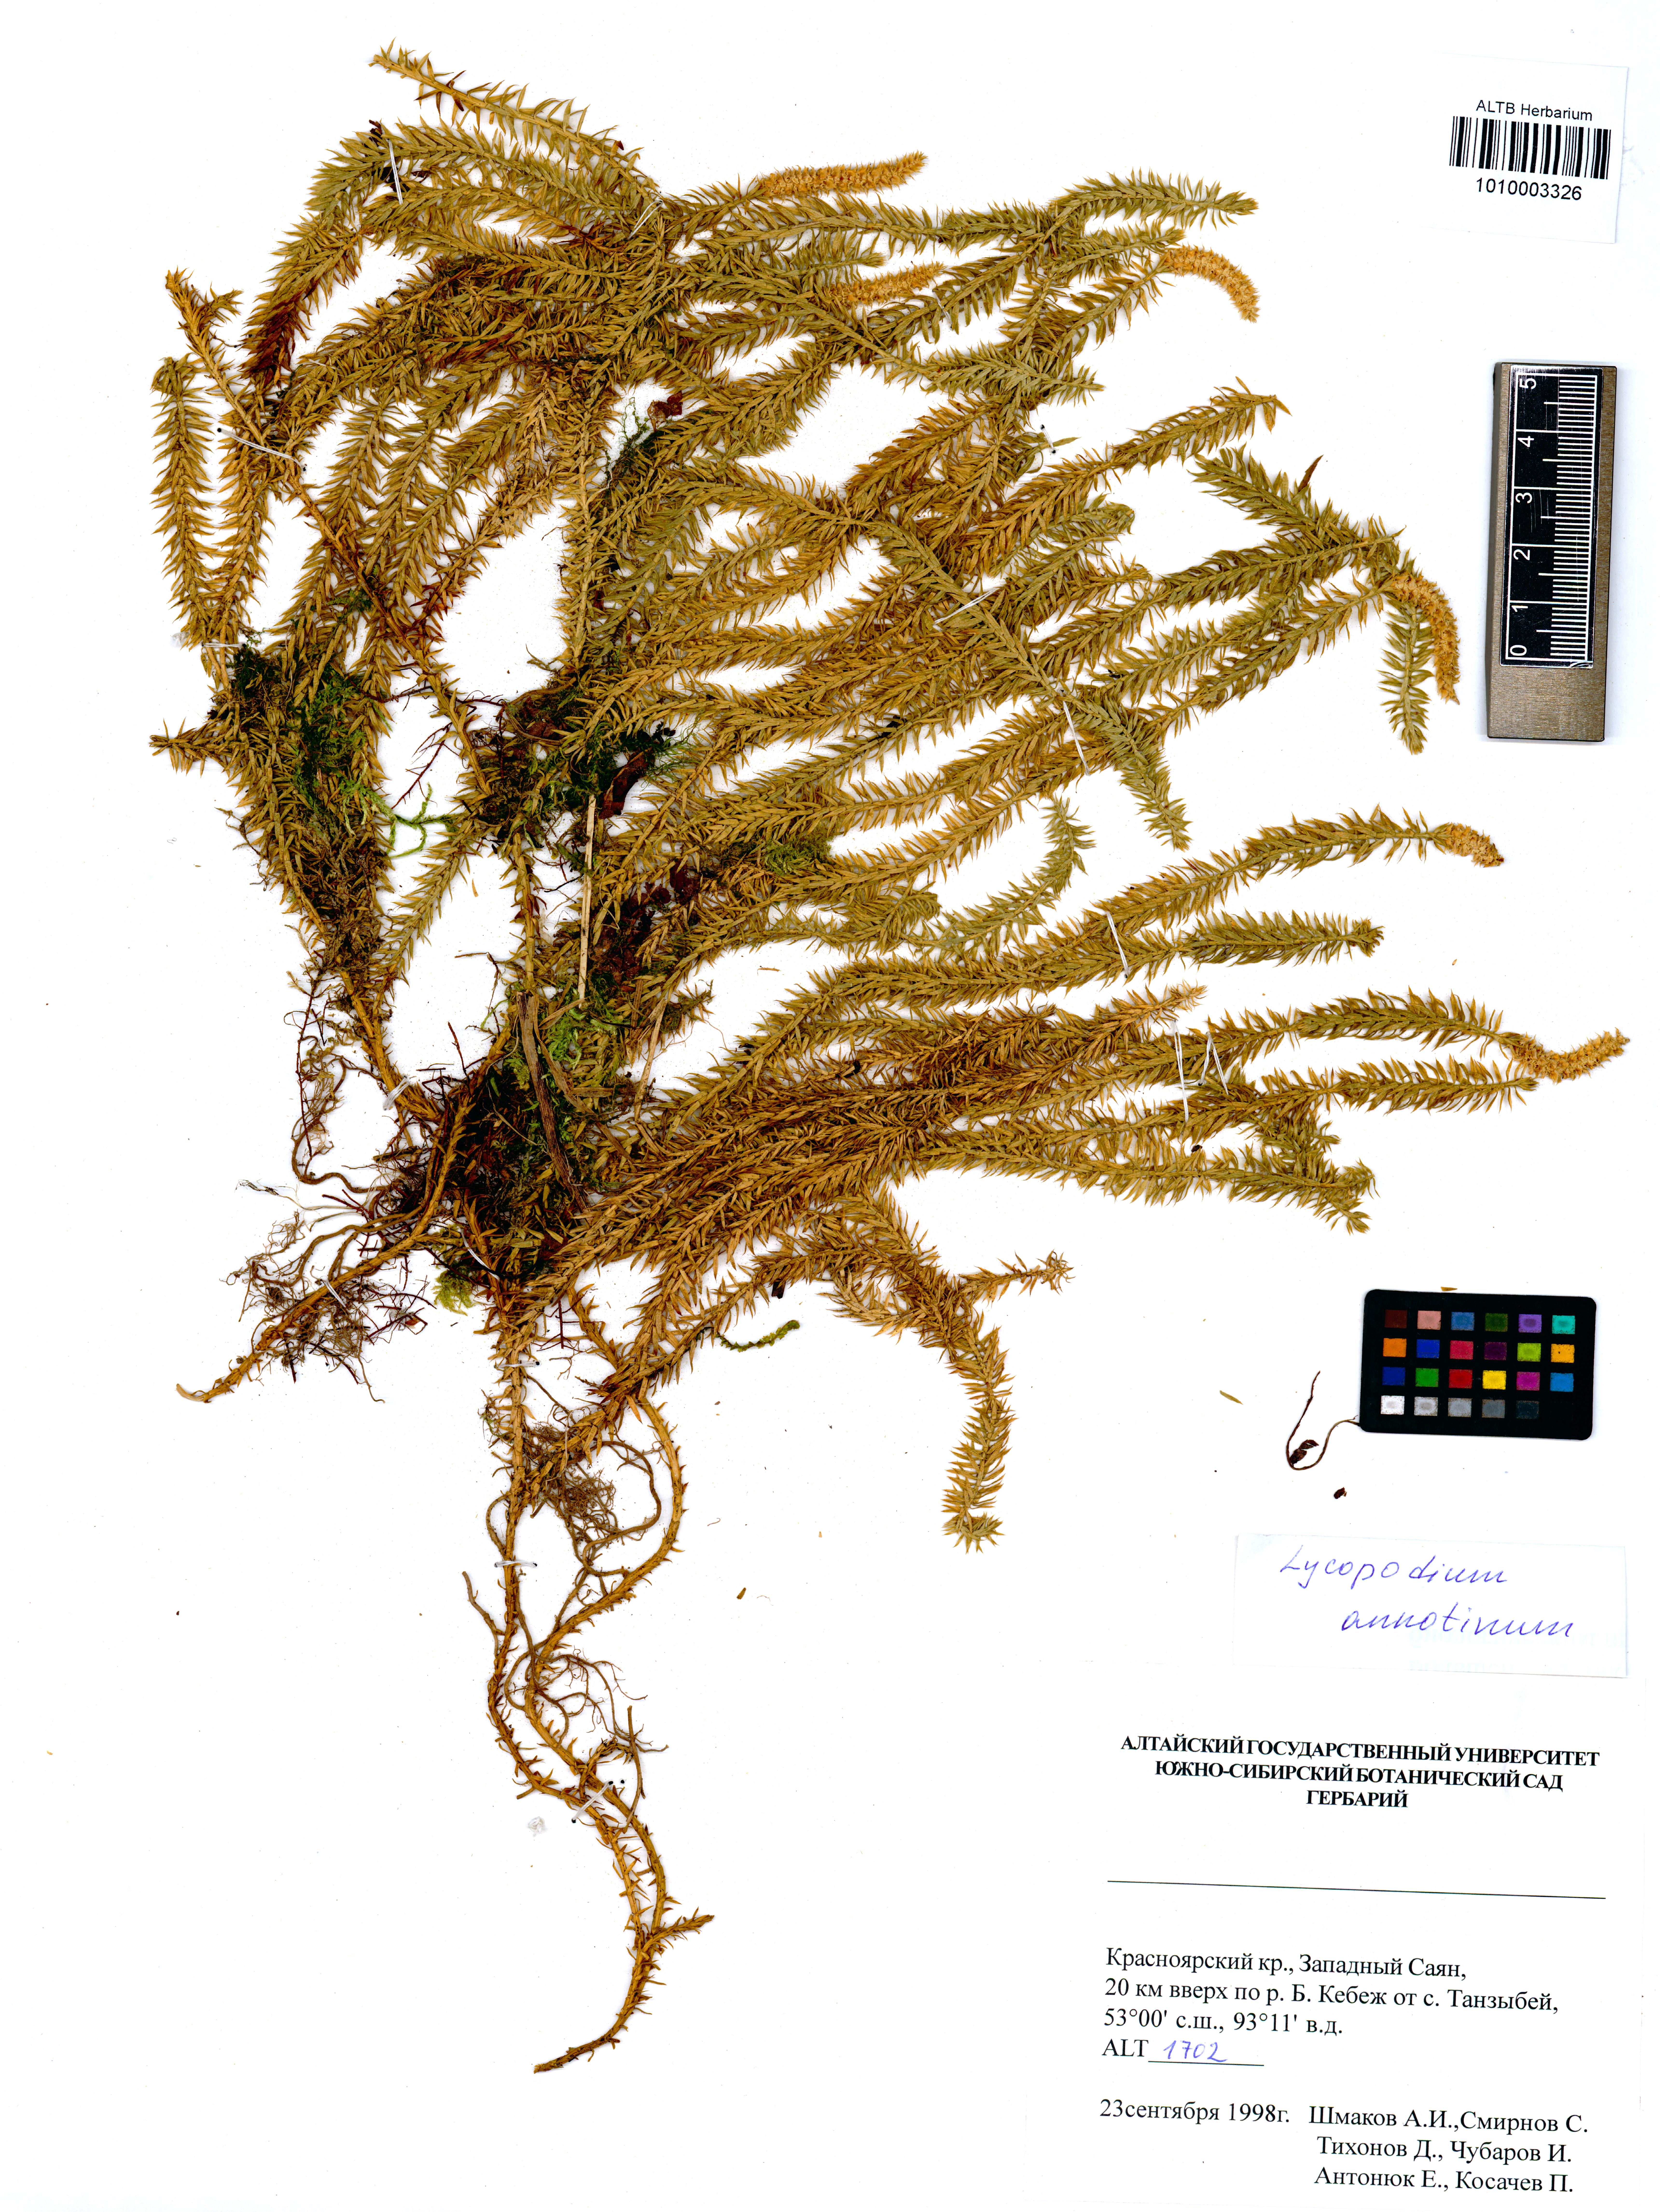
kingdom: Plantae
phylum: Tracheophyta
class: Lycopodiopsida
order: Lycopodiales
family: Lycopodiaceae
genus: Spinulum
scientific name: Spinulum annotinum
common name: Interrupted club-moss
